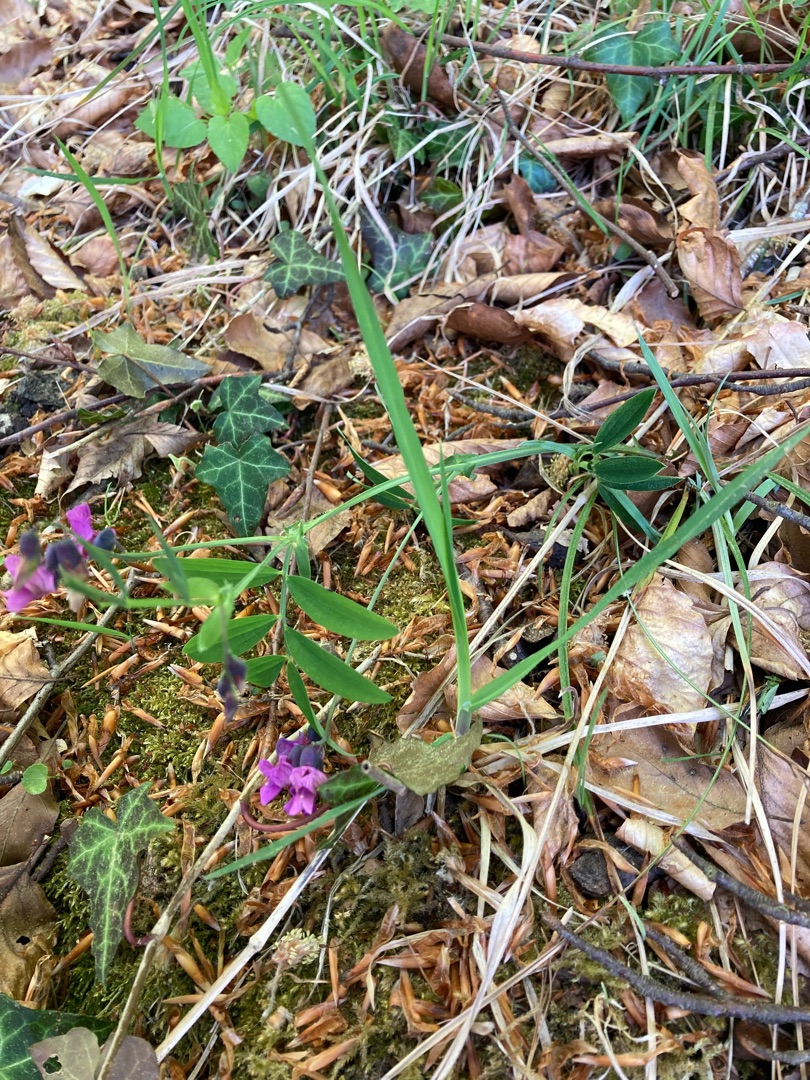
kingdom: Plantae
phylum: Tracheophyta
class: Magnoliopsida
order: Fabales
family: Fabaceae
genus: Lathyrus
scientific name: Lathyrus linifolius
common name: Krat-fladbælg
